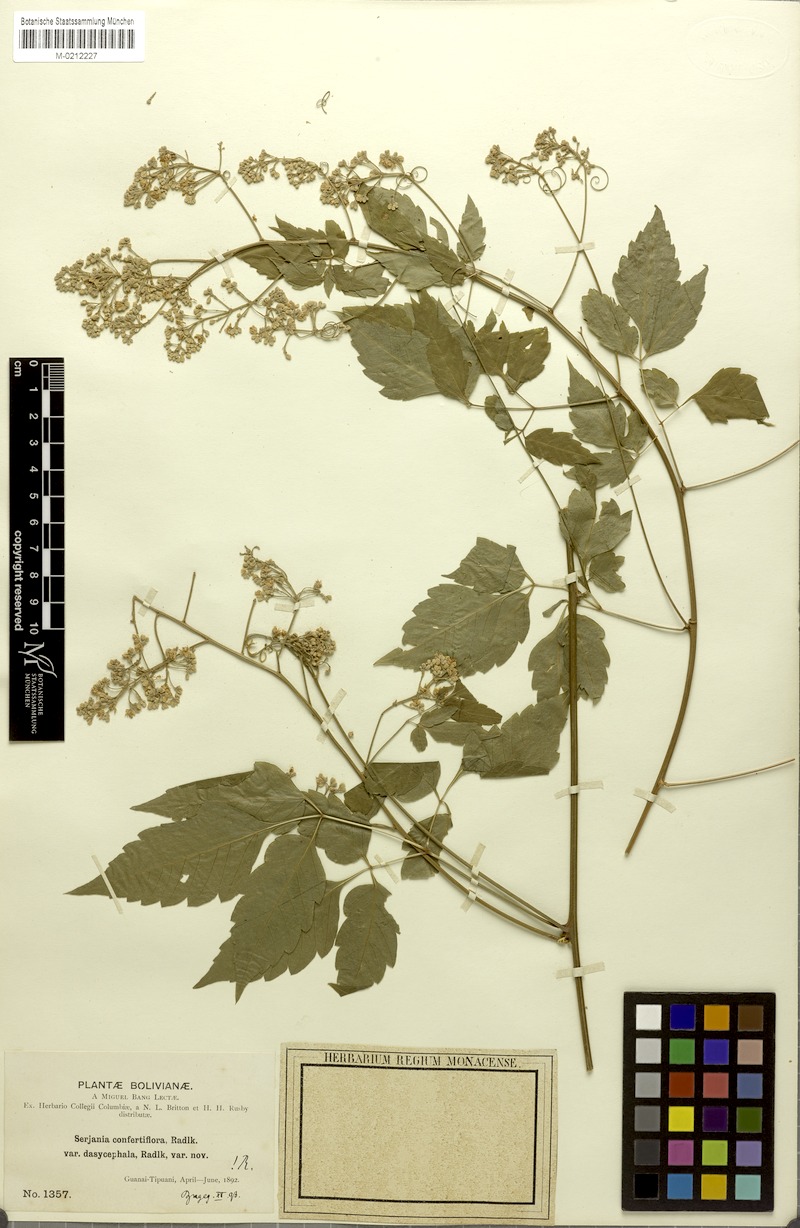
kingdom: Plantae
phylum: Tracheophyta
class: Magnoliopsida
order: Sapindales
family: Sapindaceae
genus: Serjania
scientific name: Serjania confertiflora
